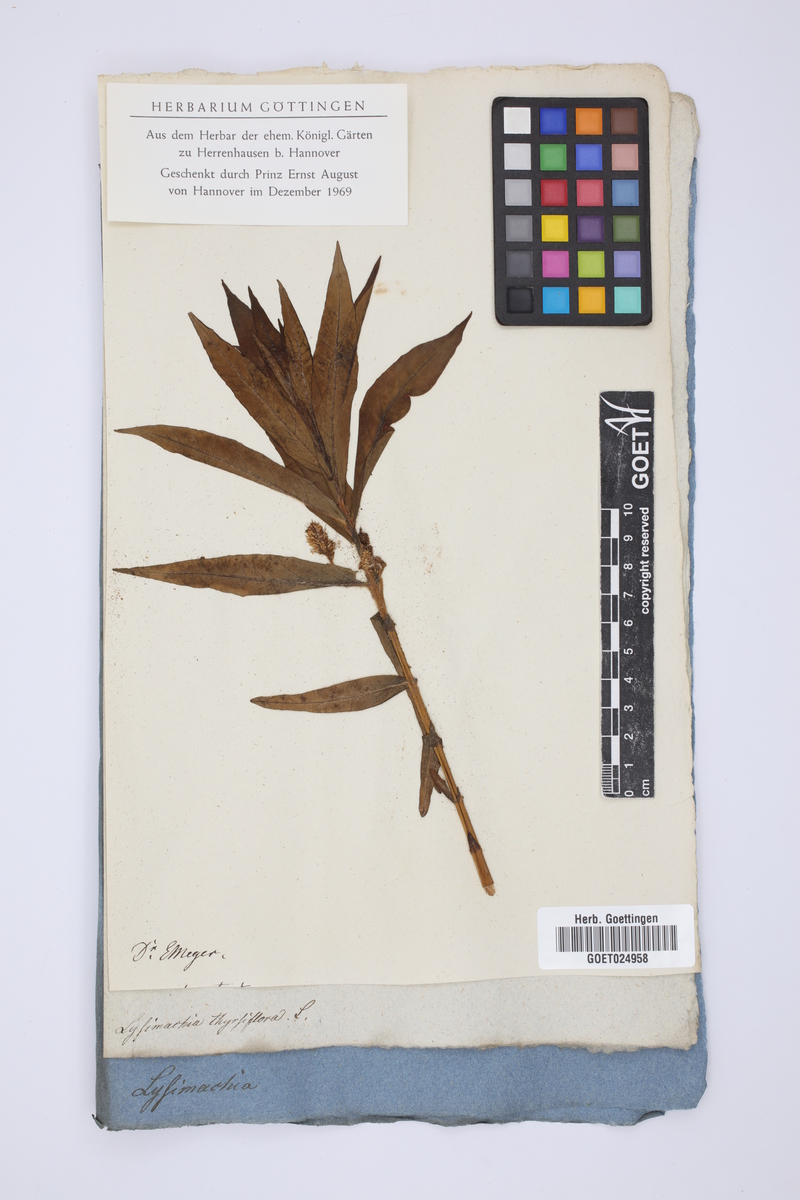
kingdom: Plantae
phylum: Tracheophyta
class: Magnoliopsida
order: Ericales
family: Primulaceae
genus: Lysimachia
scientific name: Lysimachia thyrsiflora
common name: Tufted loosestrife
